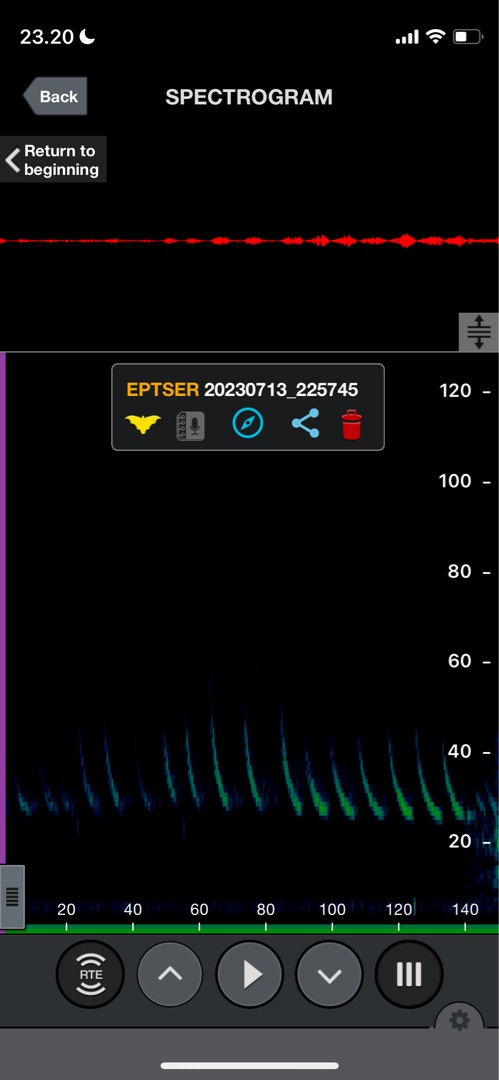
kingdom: Animalia
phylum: Chordata
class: Mammalia
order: Chiroptera
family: Vespertilionidae
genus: Eptesicus
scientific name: Eptesicus serotinus
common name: Sydflagermus
